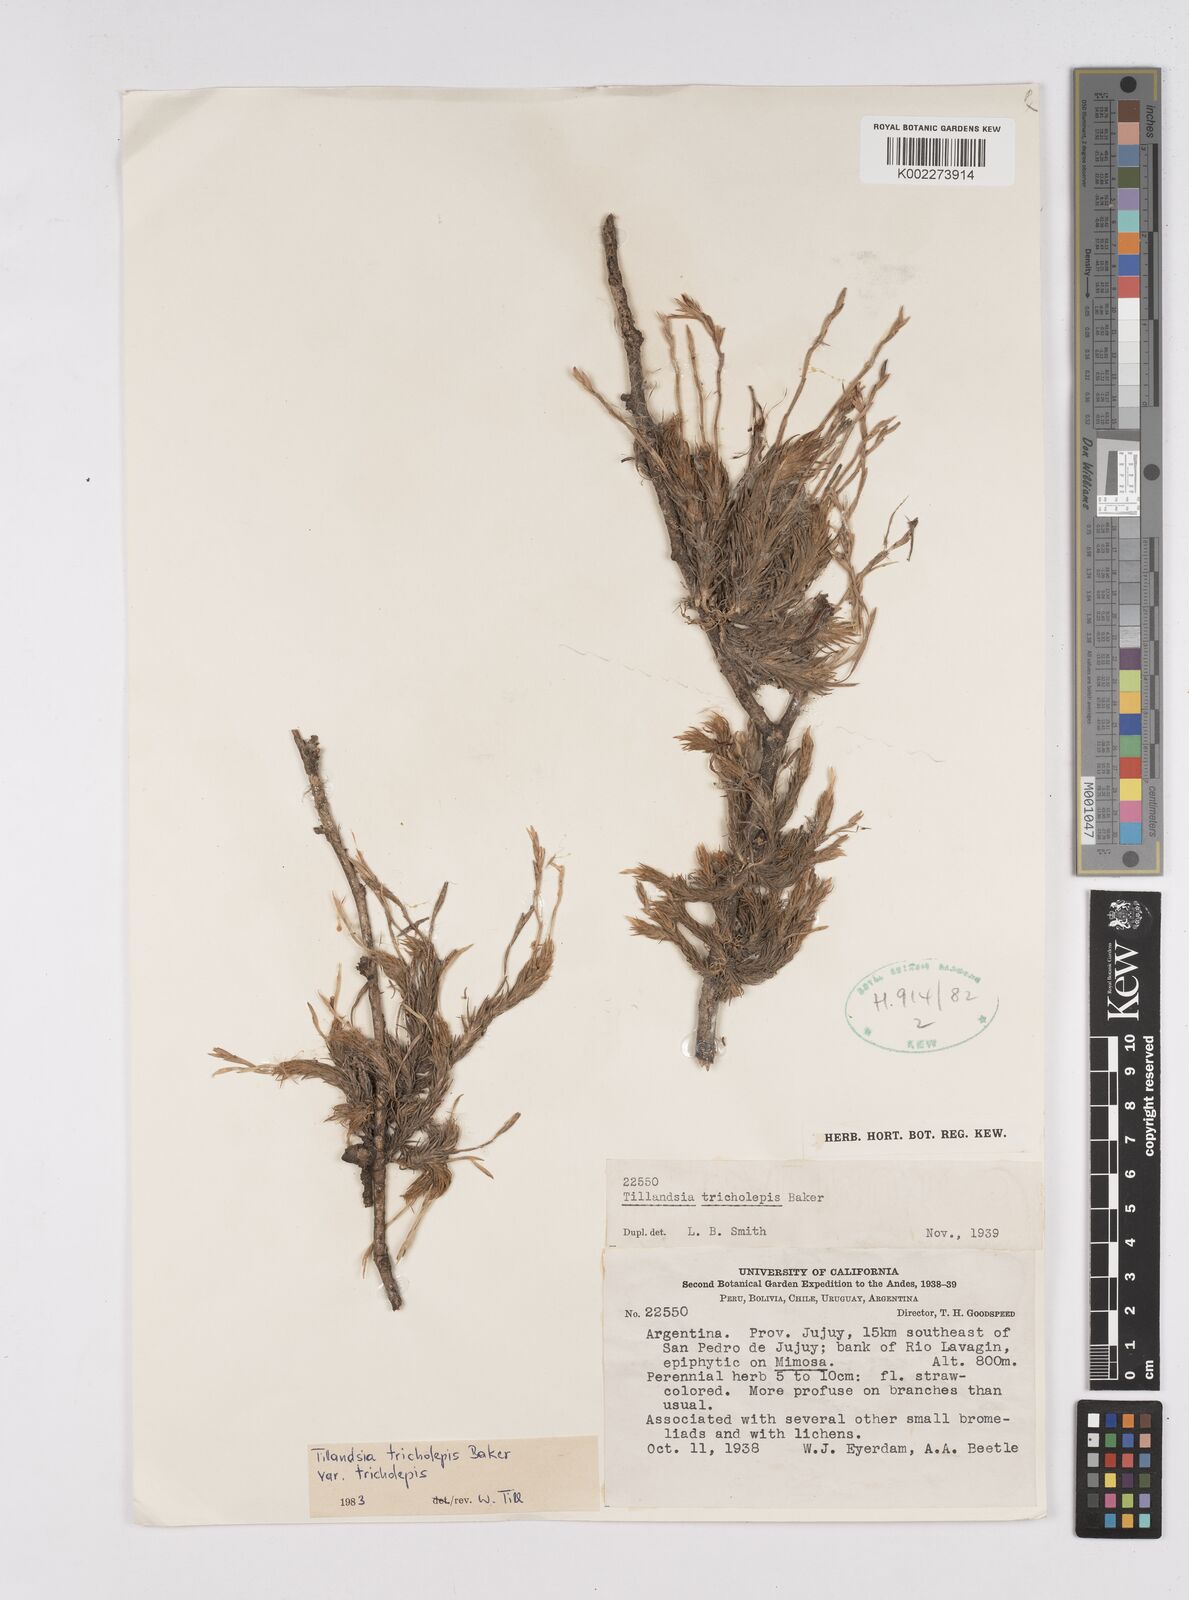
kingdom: Plantae
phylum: Tracheophyta
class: Liliopsida
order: Poales
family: Bromeliaceae
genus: Tillandsia
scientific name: Tillandsia tricholepis
